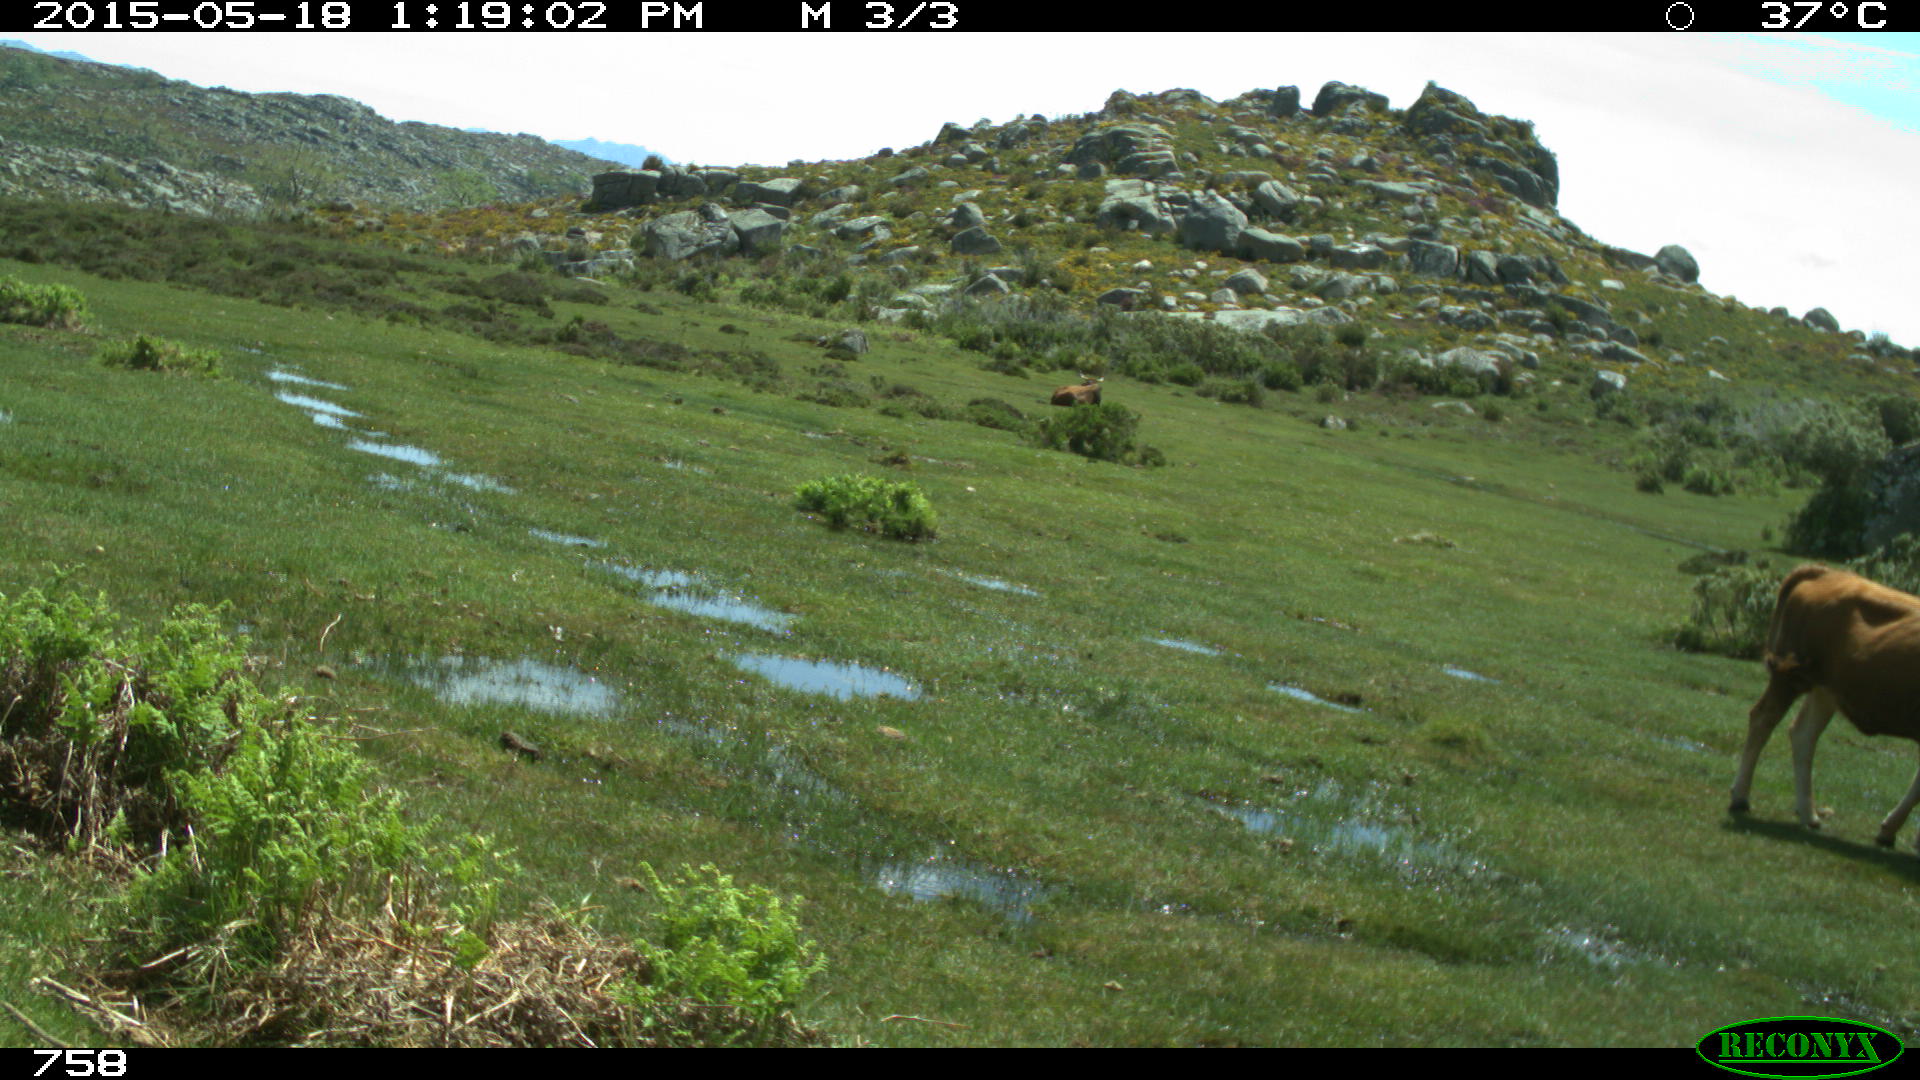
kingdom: Animalia
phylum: Chordata
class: Mammalia
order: Artiodactyla
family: Bovidae
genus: Bos
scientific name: Bos taurus
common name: Domesticated cattle
